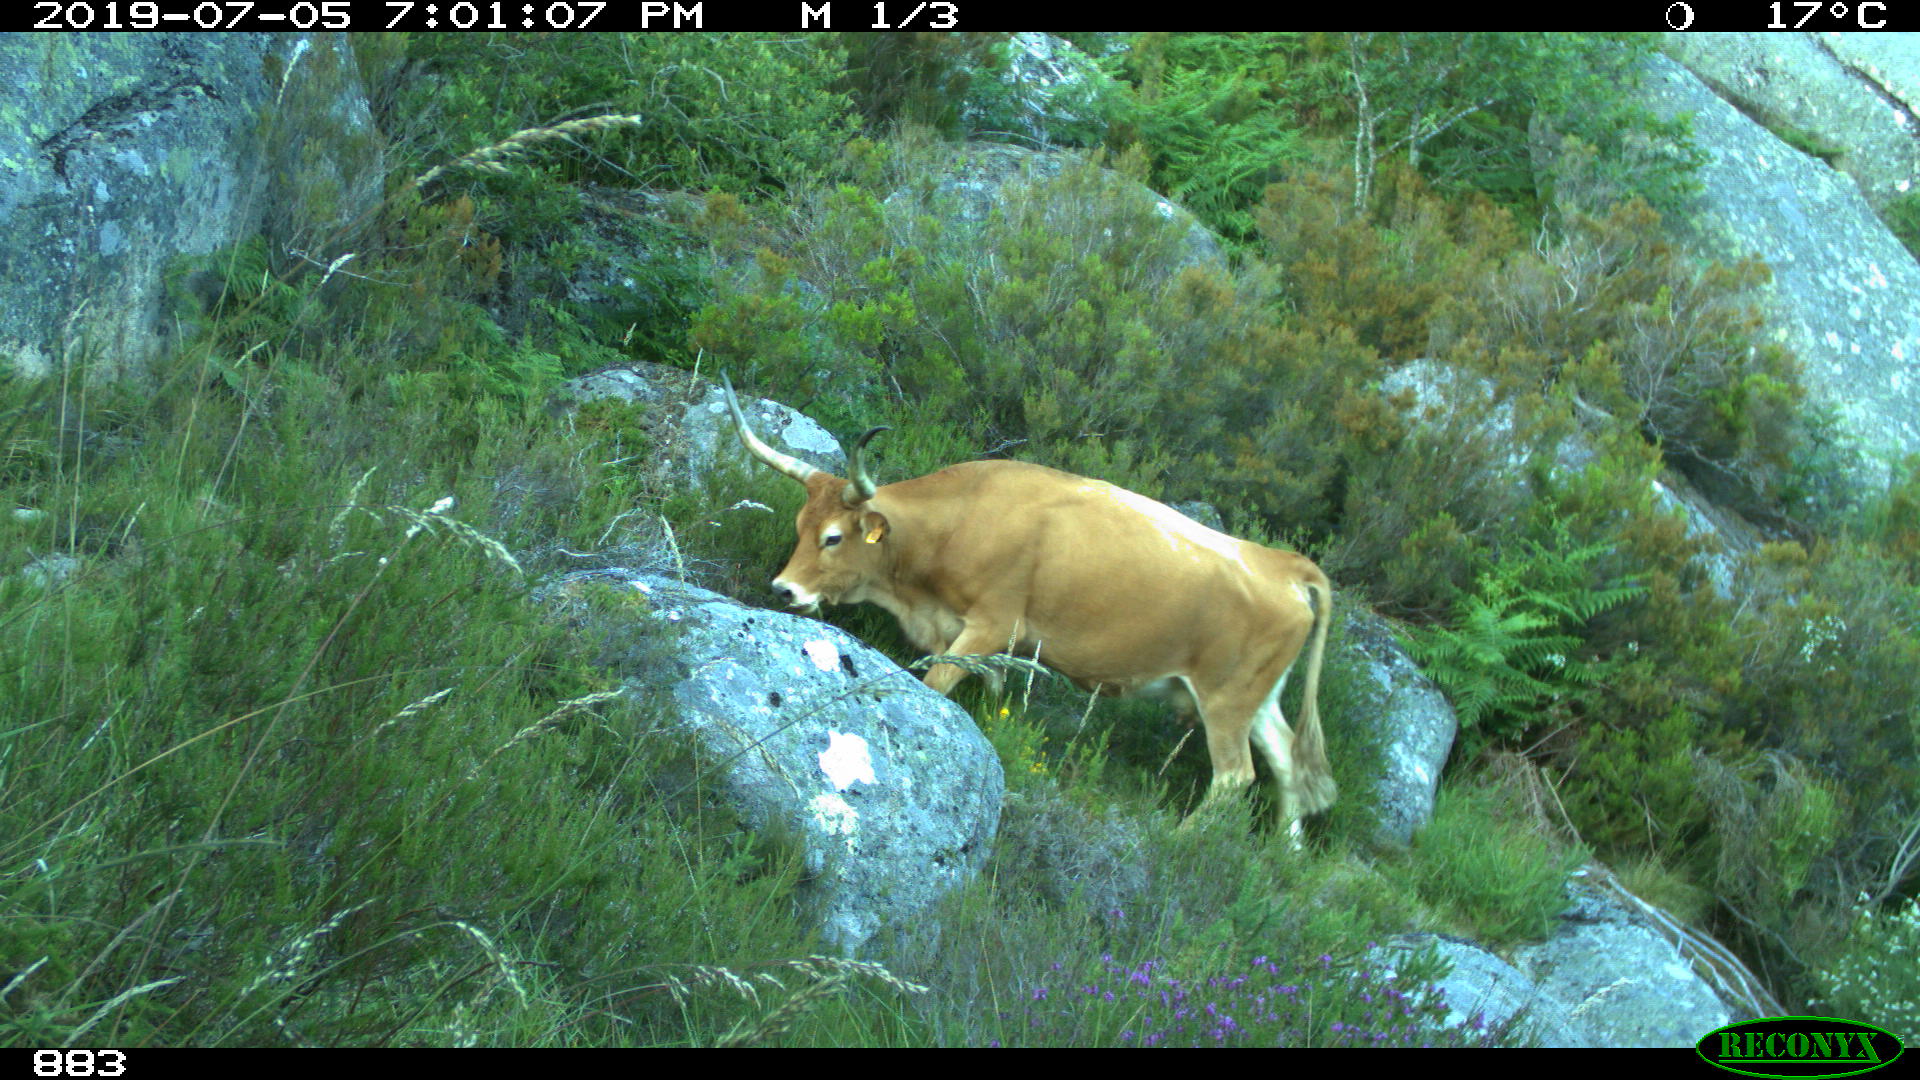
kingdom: Animalia
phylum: Chordata
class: Mammalia
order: Artiodactyla
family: Bovidae
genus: Bos
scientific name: Bos taurus
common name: Domesticated cattle
